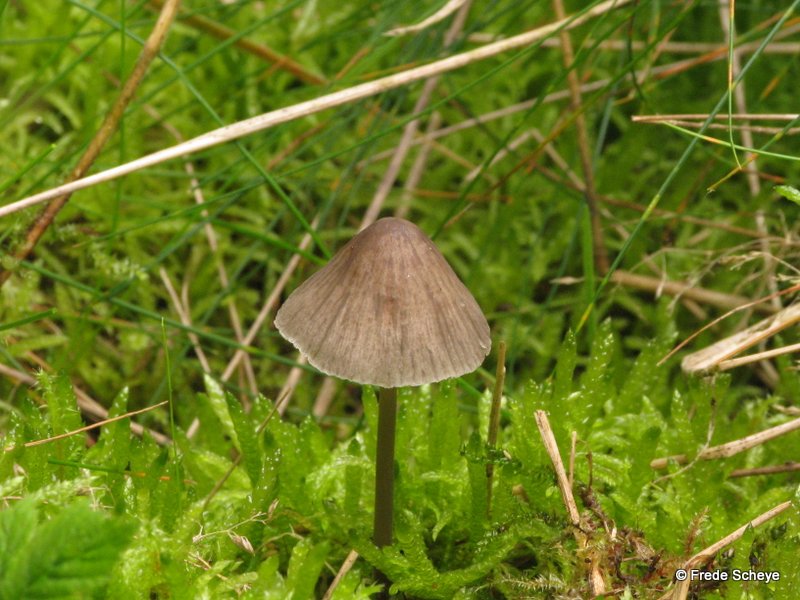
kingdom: Fungi
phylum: Basidiomycota
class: Agaricomycetes
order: Agaricales
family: Mycenaceae
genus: Mycena
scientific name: Mycena abramsii
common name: sommer-huesvamp
